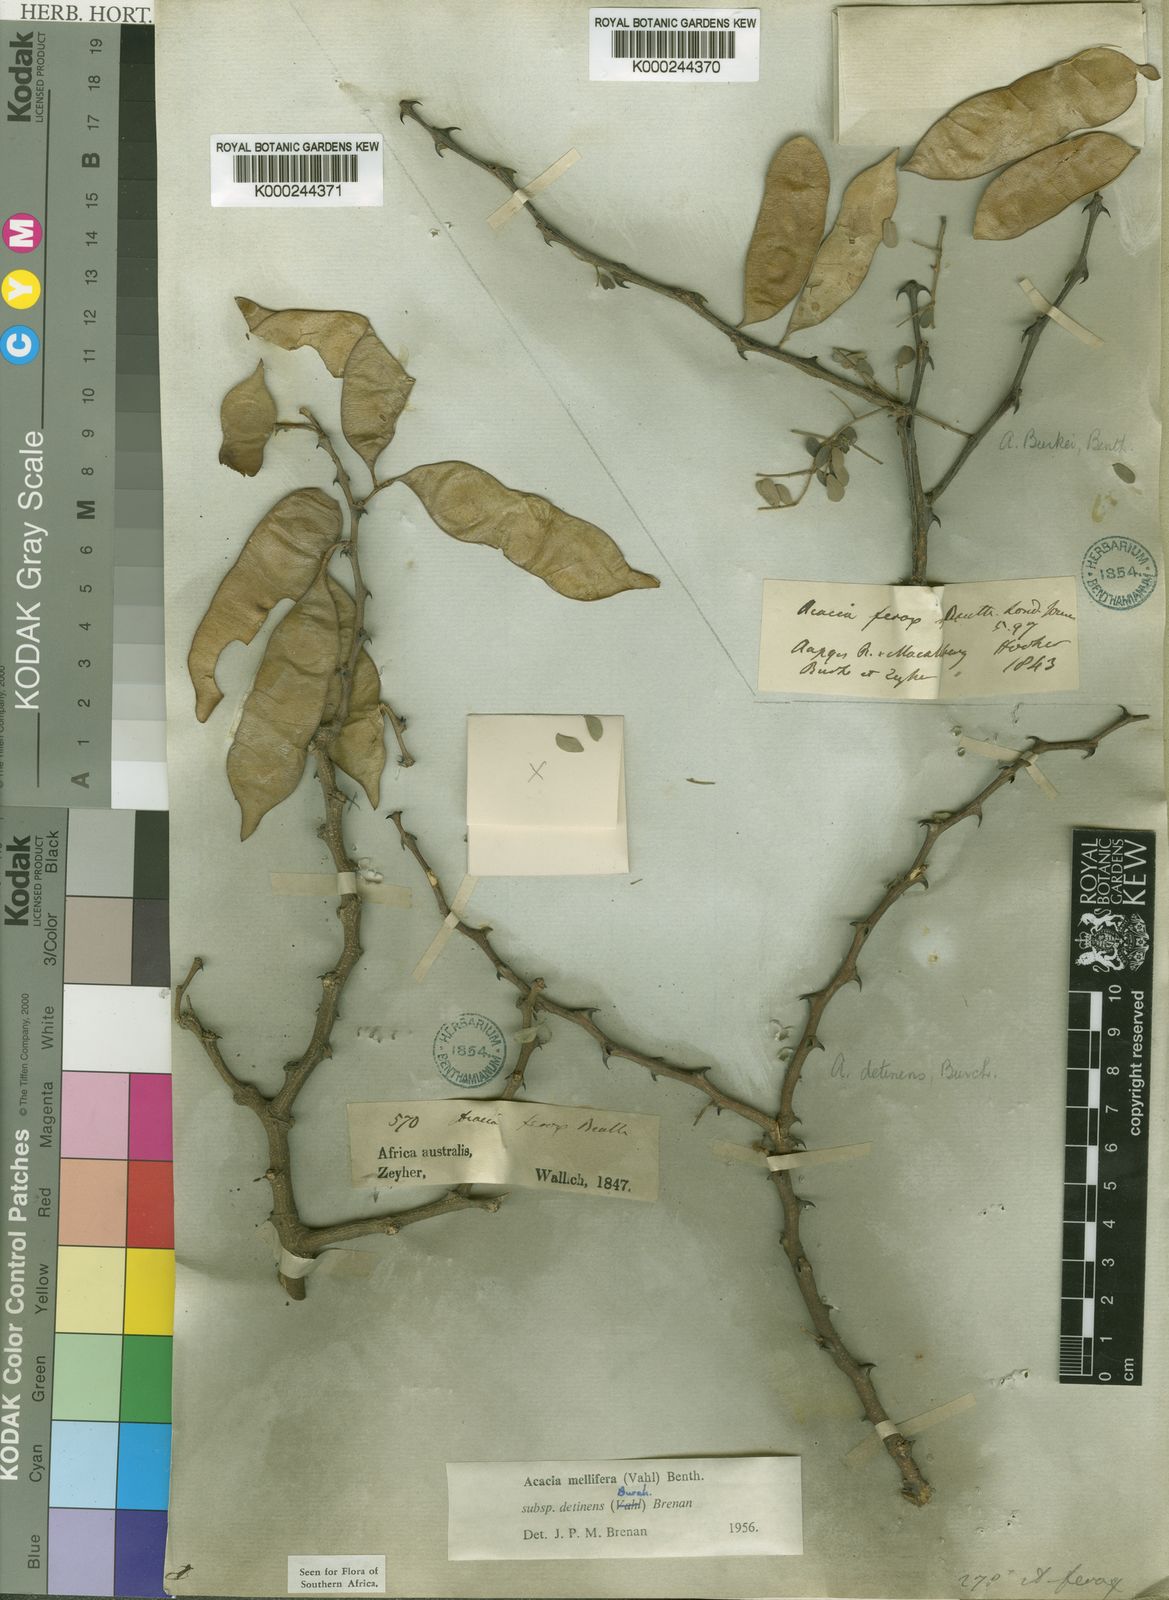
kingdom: Plantae
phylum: Tracheophyta
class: Magnoliopsida
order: Fabales
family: Fabaceae
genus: Senegalia
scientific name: Senegalia mellifera
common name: Hookthorn
